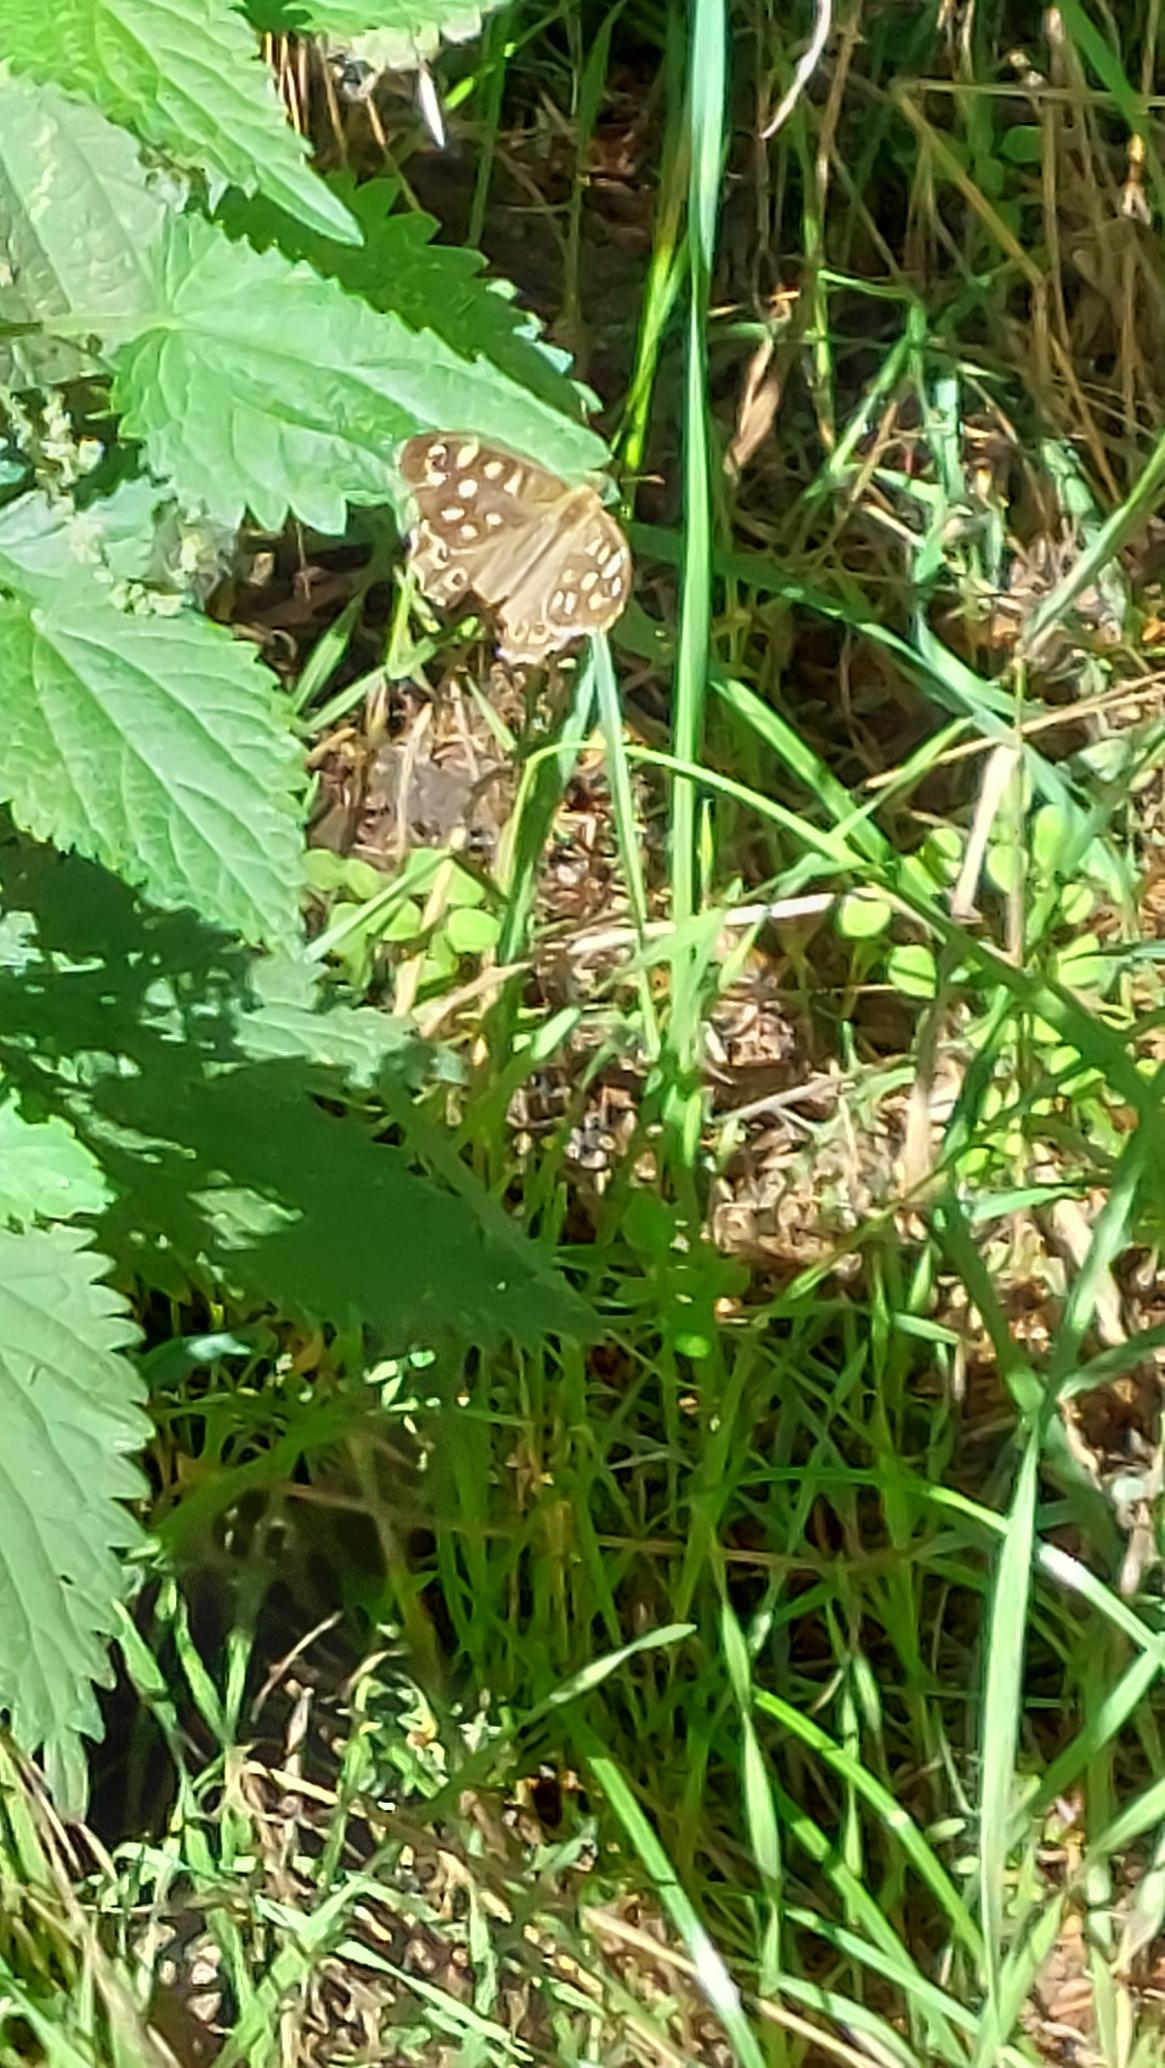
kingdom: Animalia
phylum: Arthropoda
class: Insecta
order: Lepidoptera
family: Nymphalidae
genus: Pararge
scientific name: Pararge aegeria
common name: Skovrandøje
